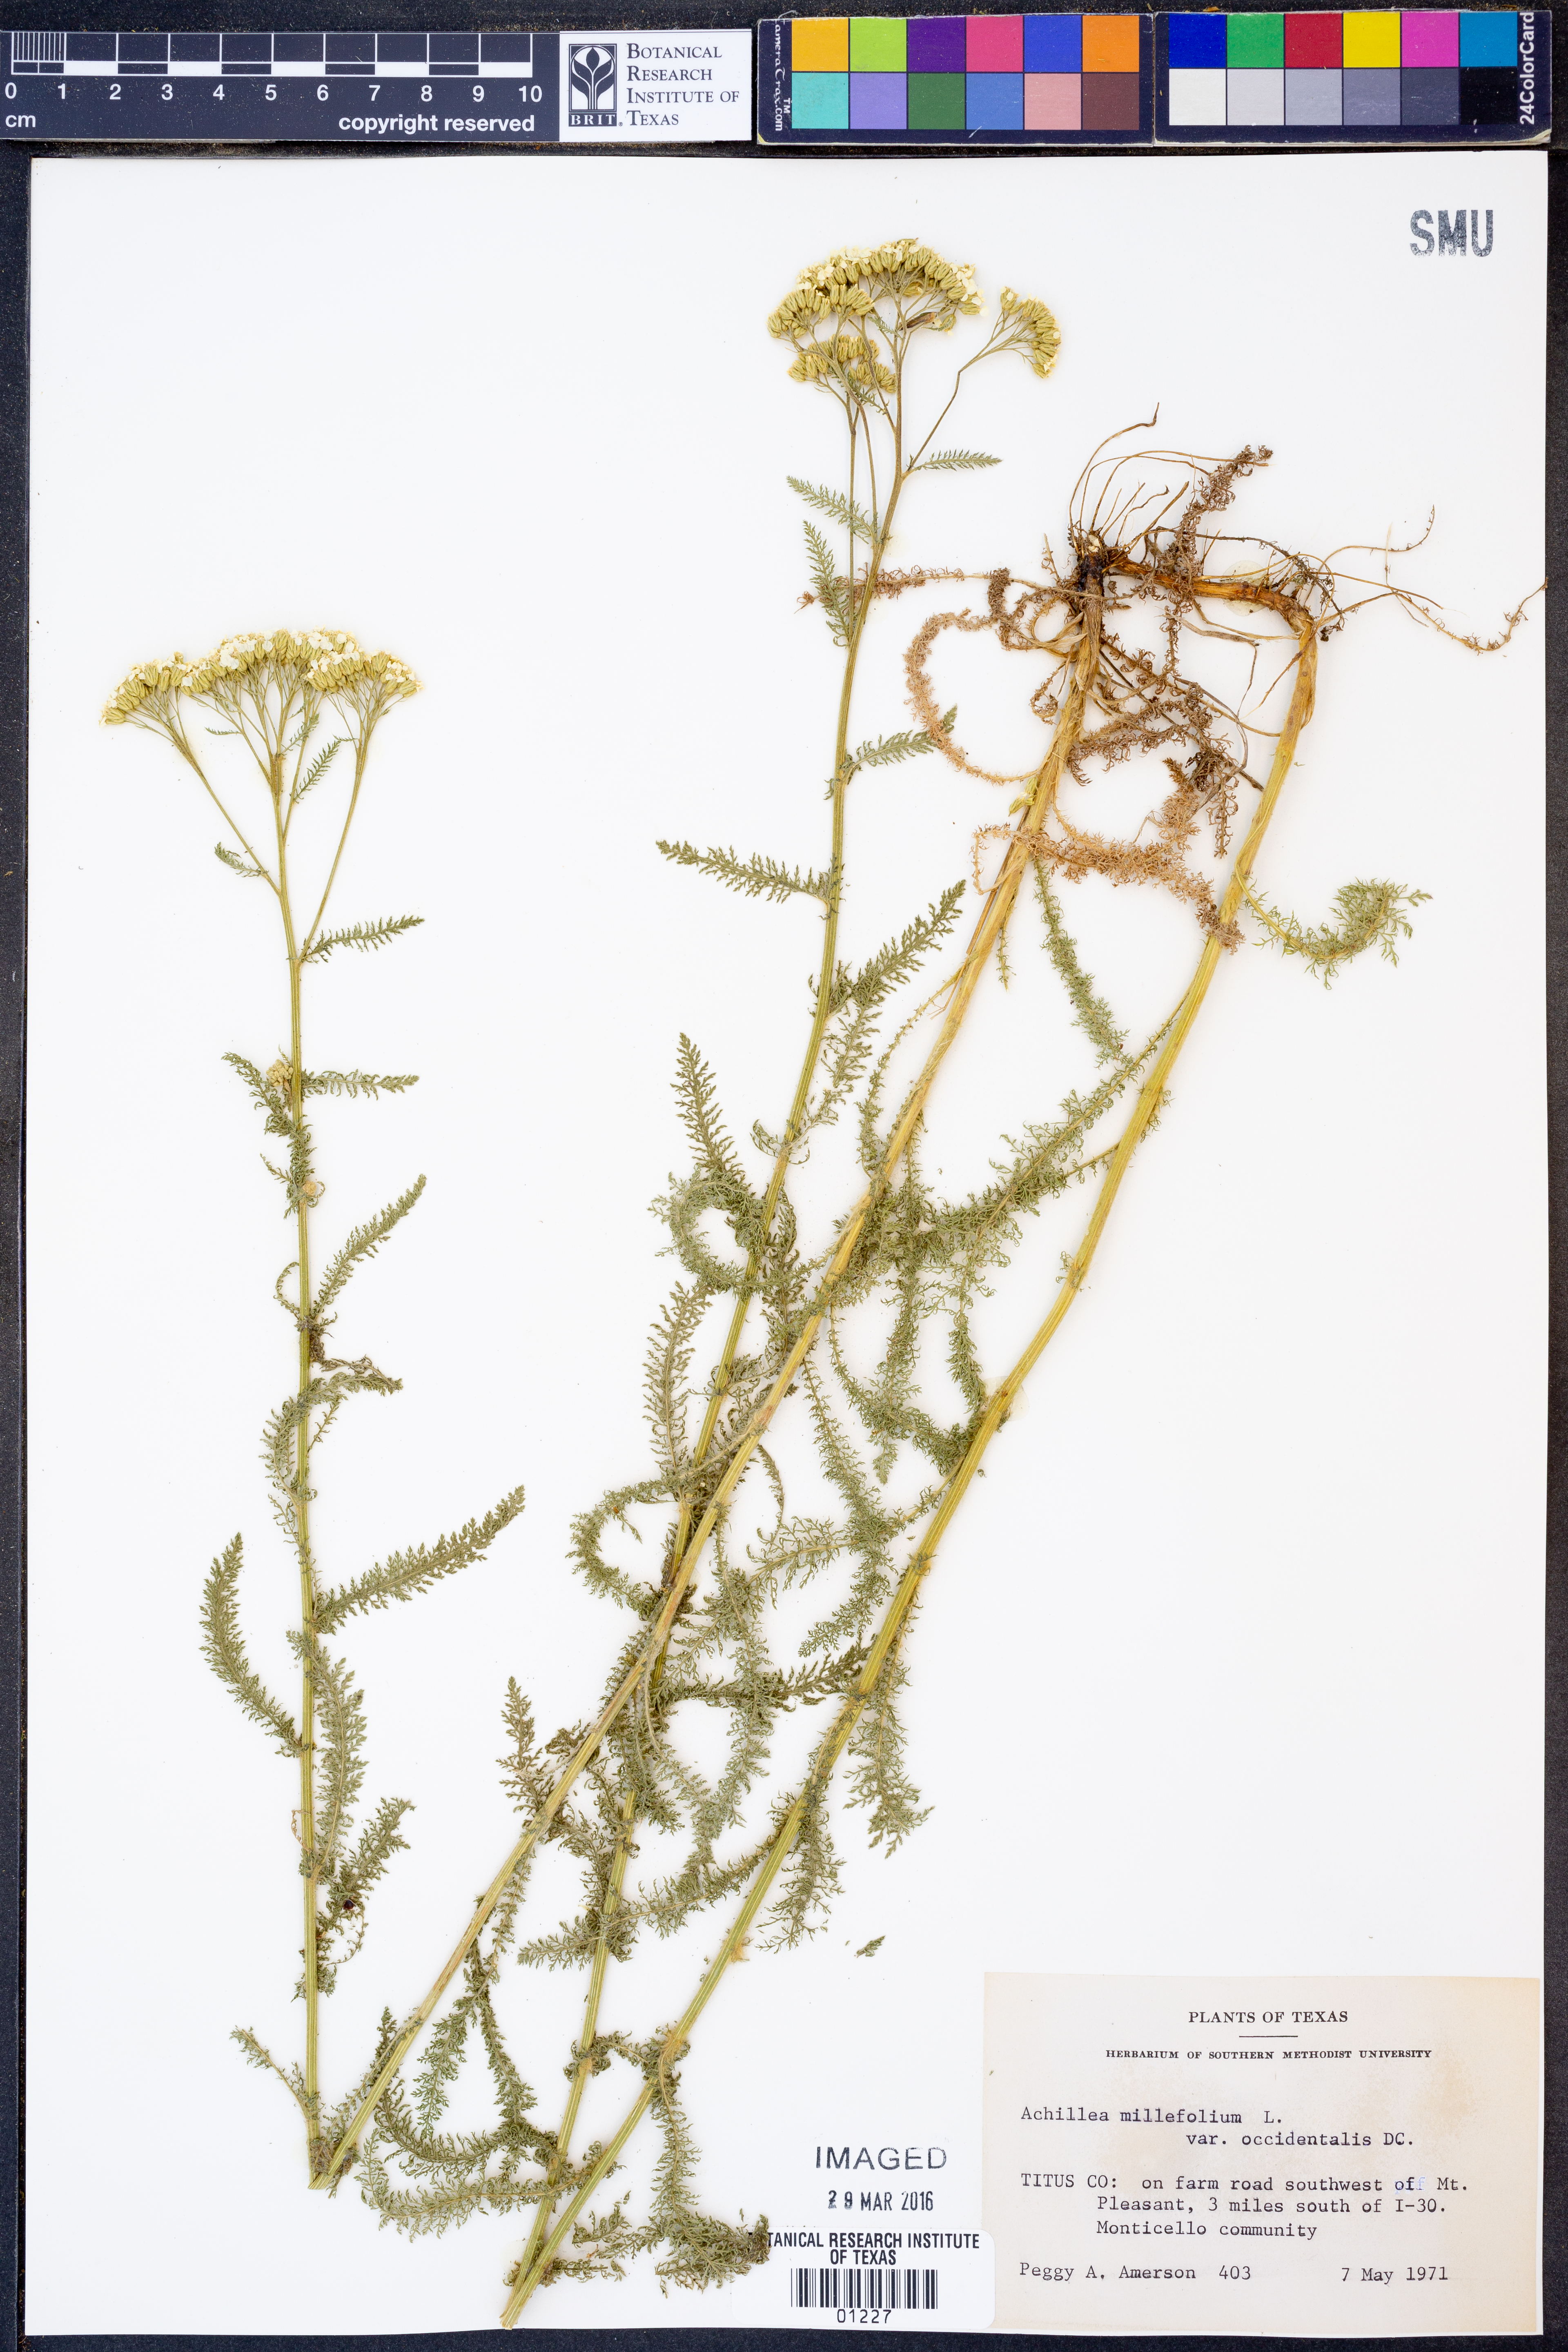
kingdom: Plantae
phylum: Tracheophyta
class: Magnoliopsida
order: Asterales
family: Asteraceae
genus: Achillea
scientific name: Achillea millefolium
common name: Yarrow
